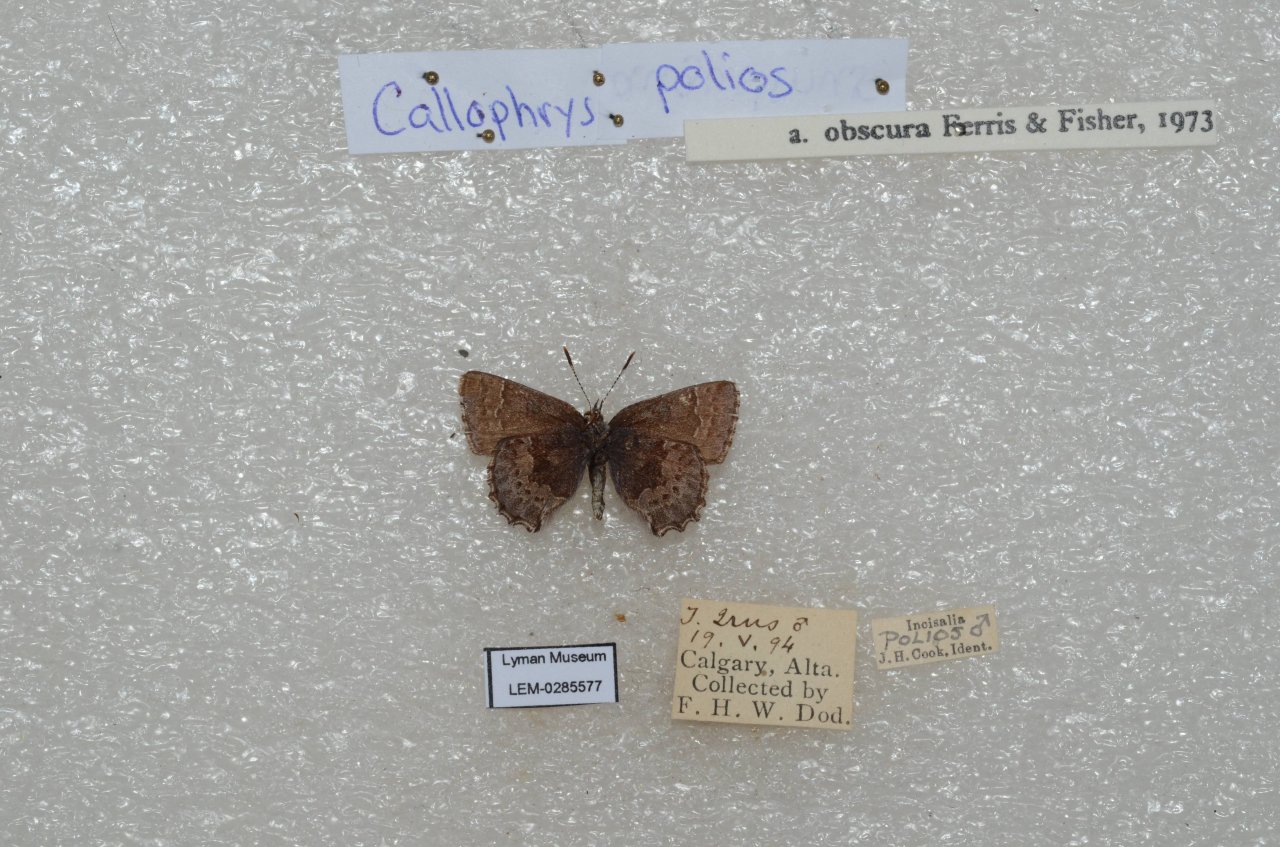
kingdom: Animalia
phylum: Arthropoda
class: Insecta
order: Lepidoptera
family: Lycaenidae
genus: Callophrys
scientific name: Callophrys polios
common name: Hoary Elfin
